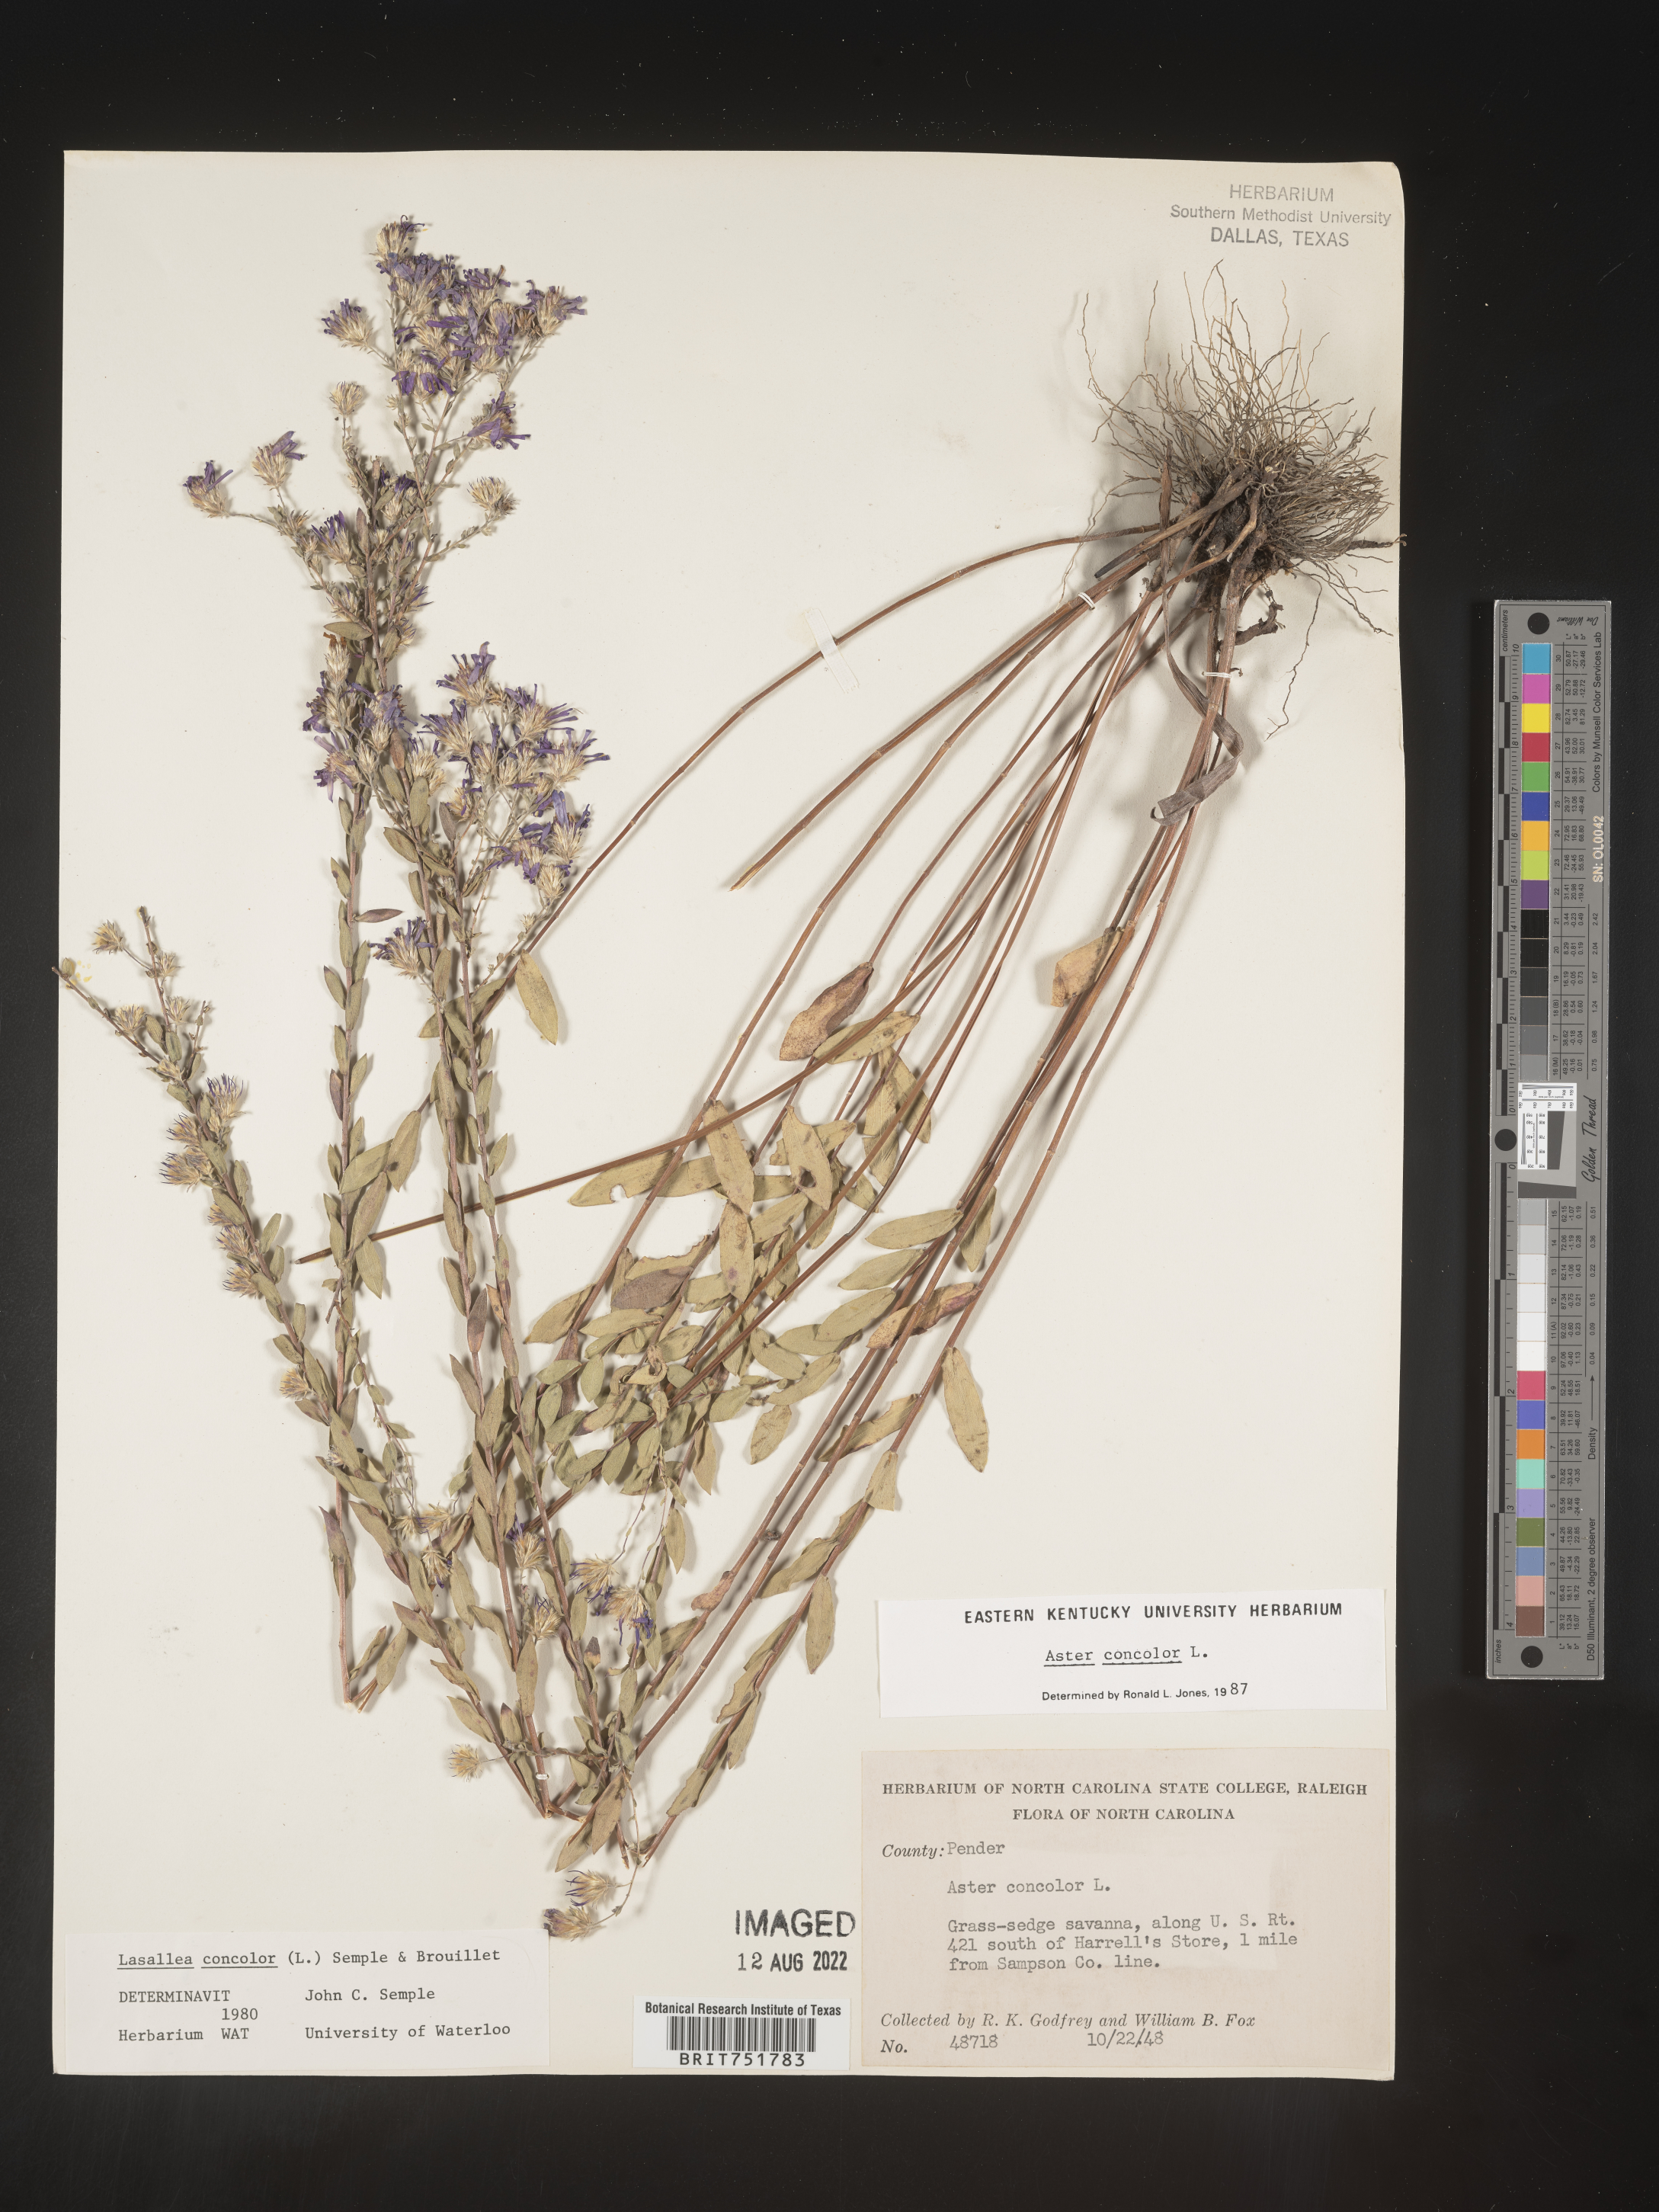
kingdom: Plantae
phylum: Tracheophyta
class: Magnoliopsida
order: Asterales
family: Asteraceae
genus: Symphyotrichum
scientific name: Symphyotrichum concolor
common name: Eastern silver aster
